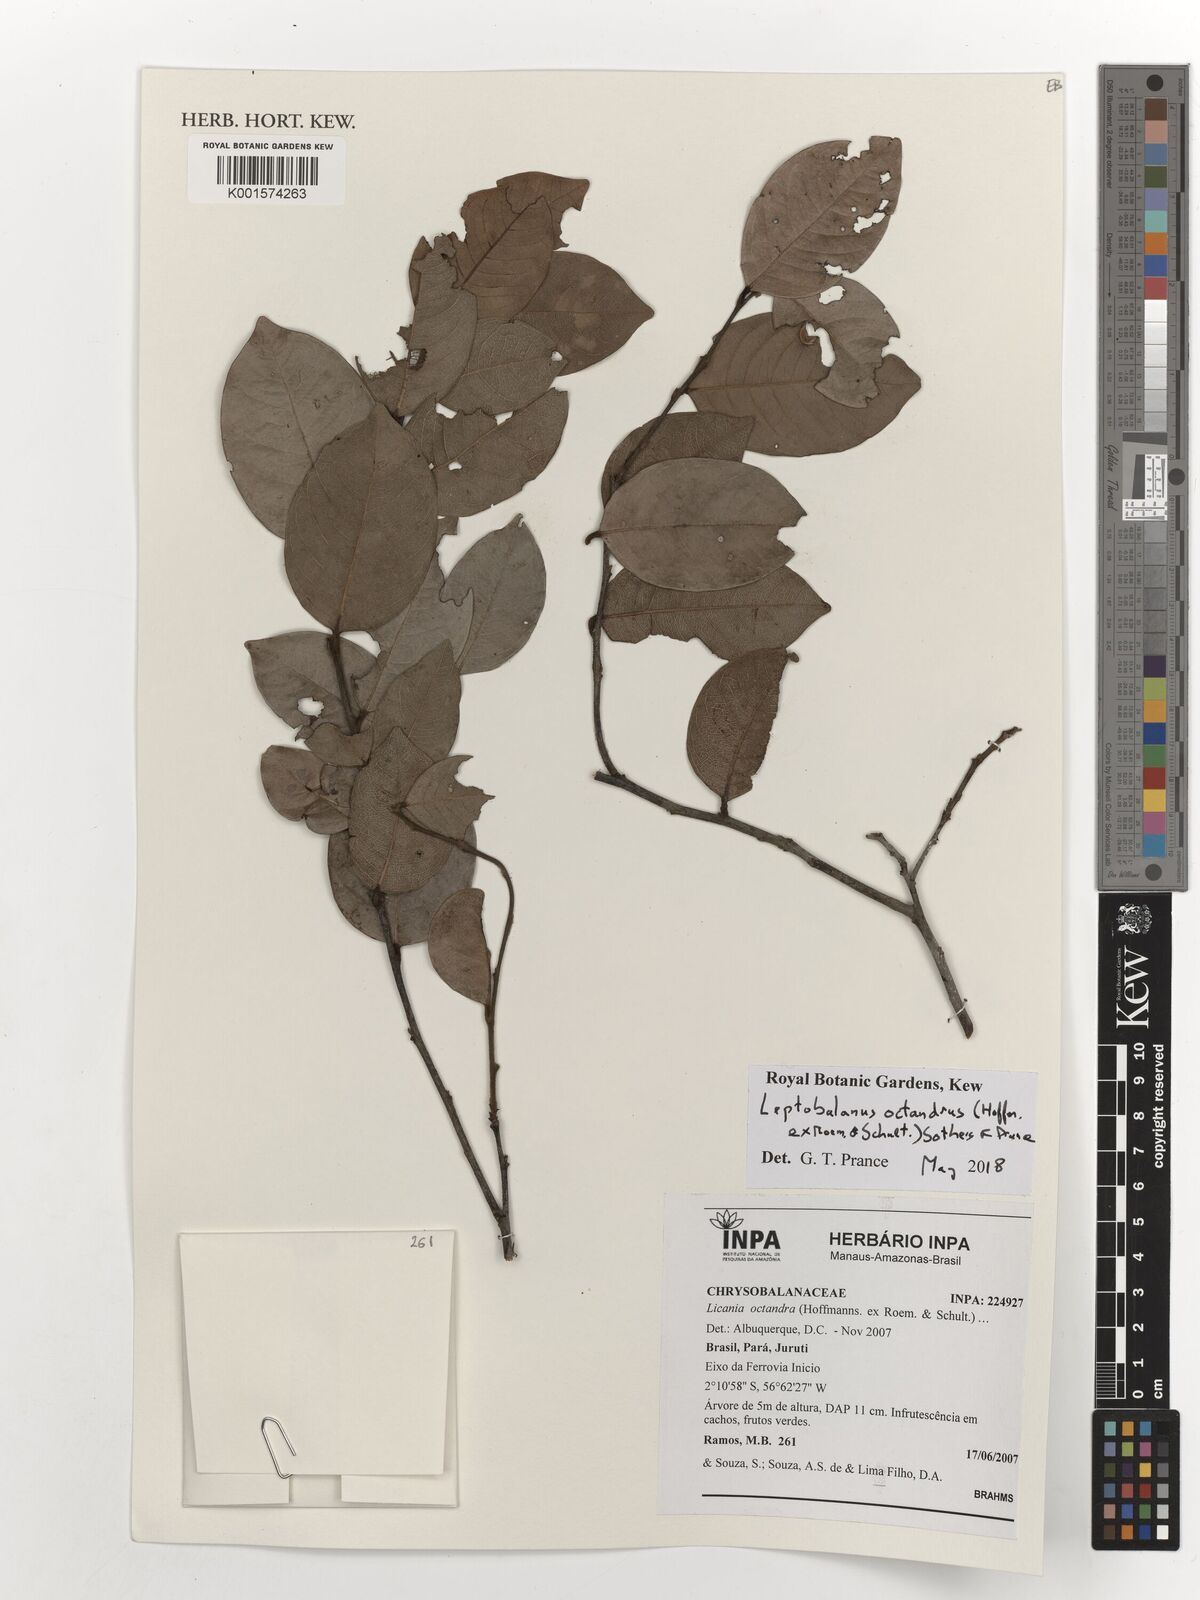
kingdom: Plantae
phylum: Tracheophyta
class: Magnoliopsida
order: Malpighiales
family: Chrysobalanaceae
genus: Leptobalanus
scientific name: Leptobalanus octandrus
